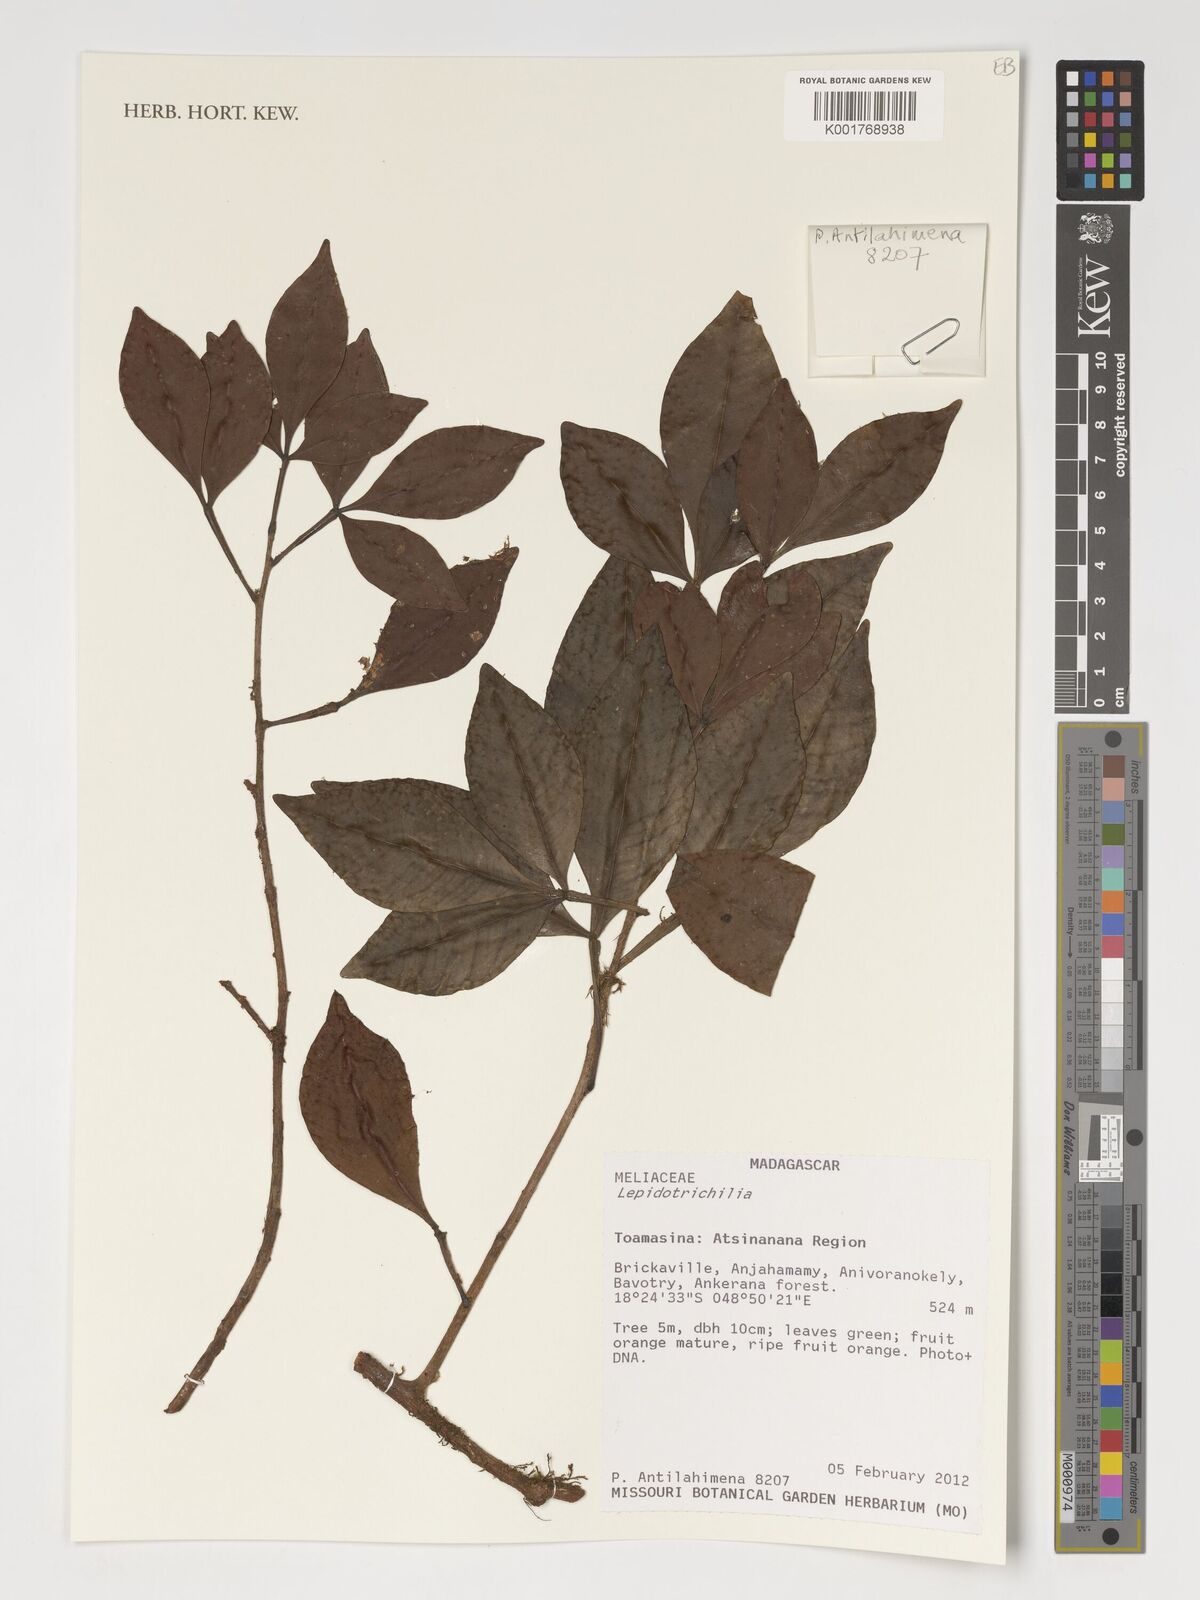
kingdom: Plantae
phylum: Tracheophyta
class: Magnoliopsida
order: Sapindales
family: Meliaceae
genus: Lepidotrichilia
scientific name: Lepidotrichilia
